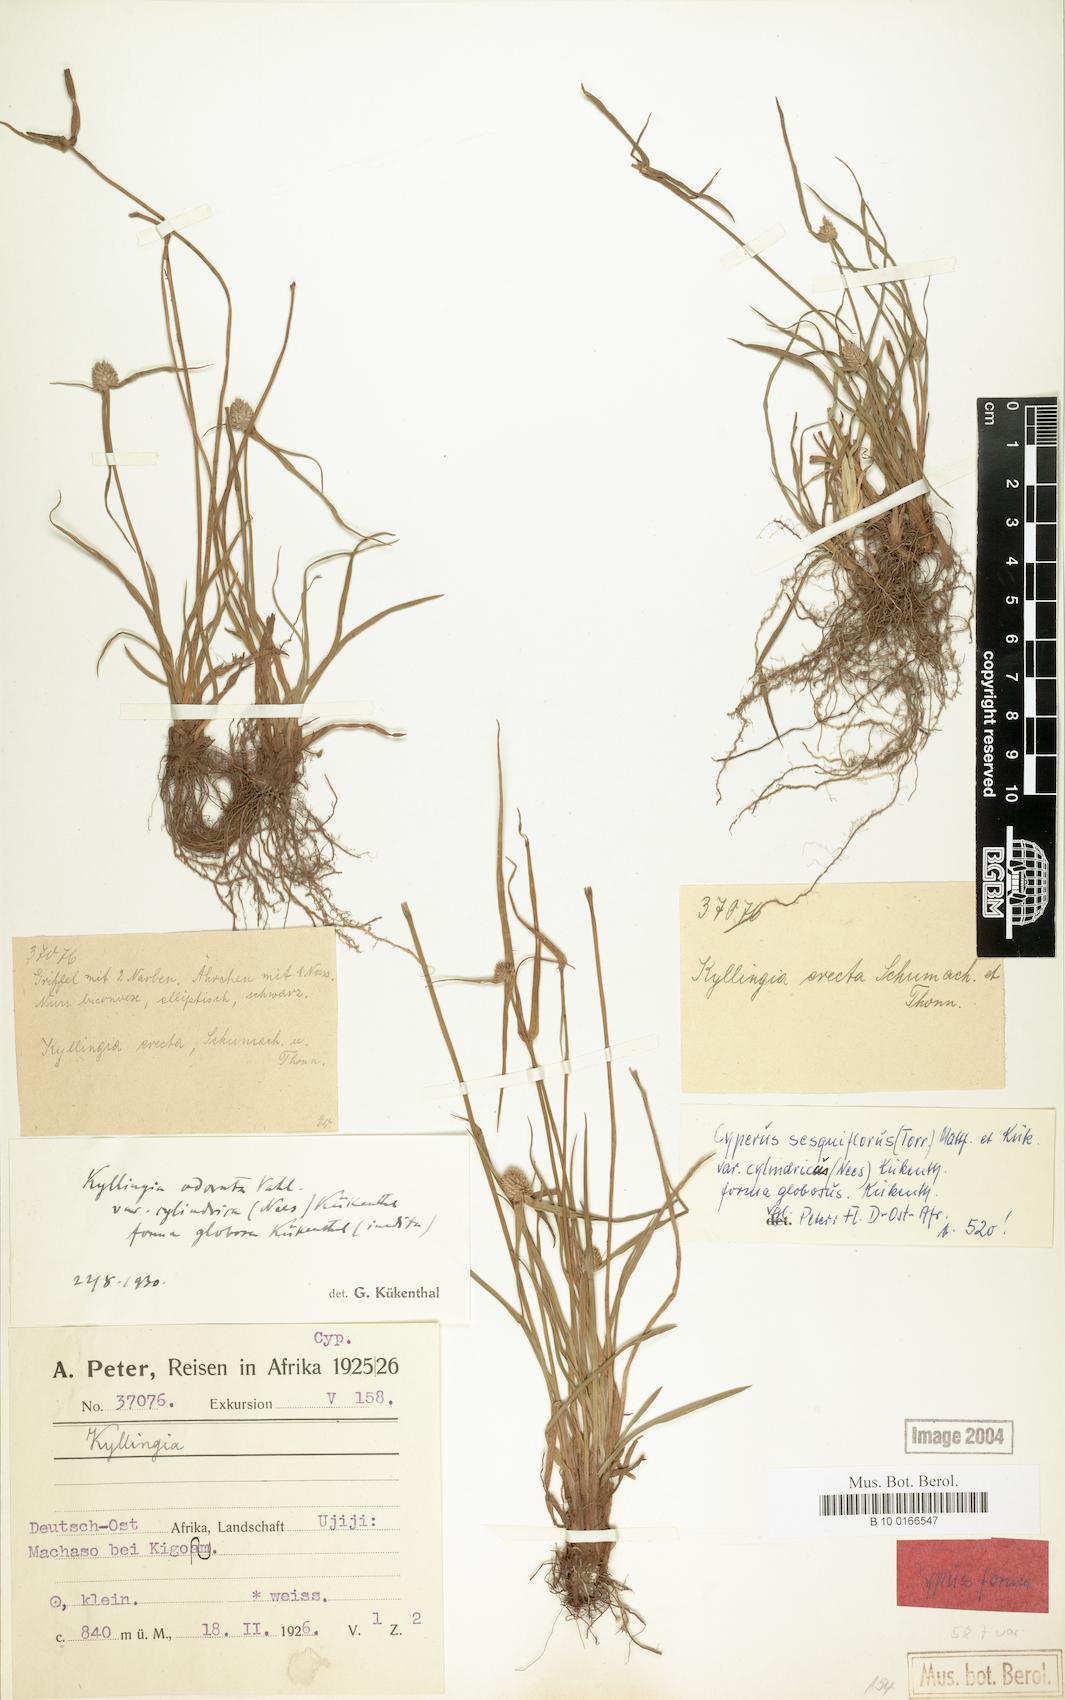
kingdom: Plantae
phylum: Tracheophyta
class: Liliopsida
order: Poales
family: Cyperaceae
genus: Cyperus
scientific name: Cyperus sesquiflorus
